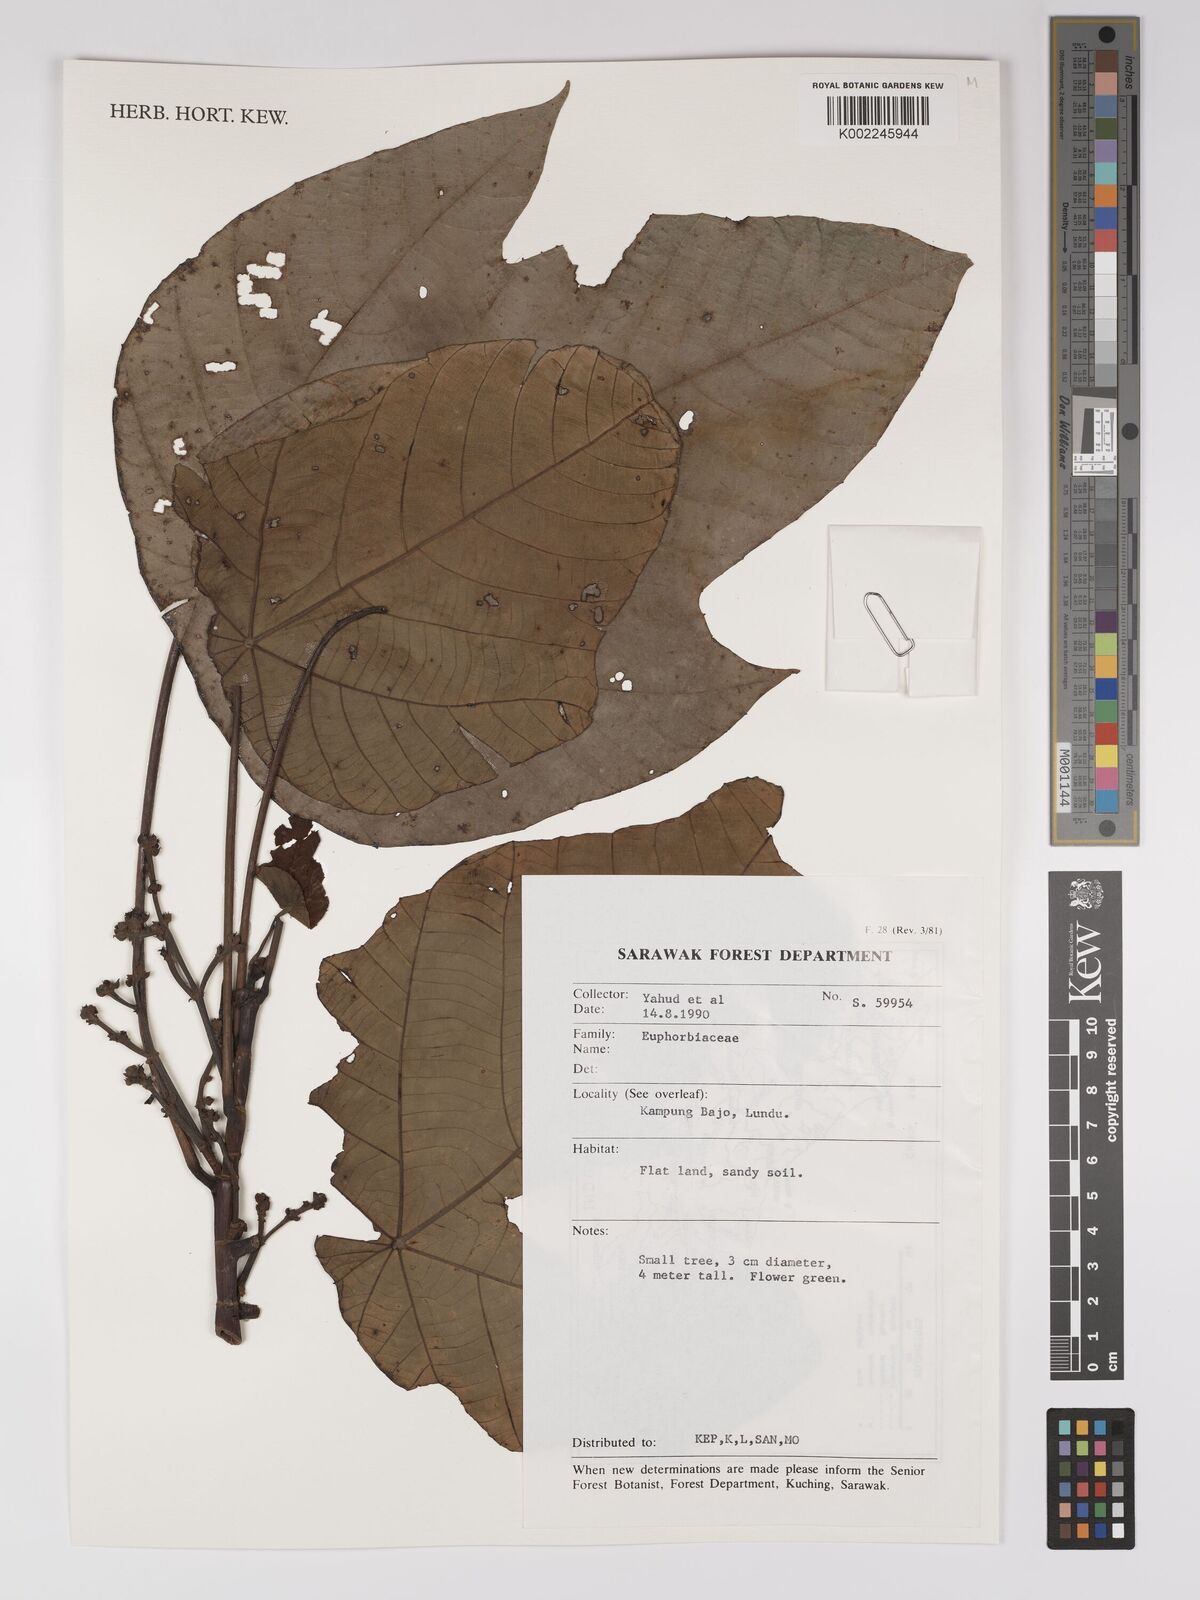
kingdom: Plantae
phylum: Tracheophyta
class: Magnoliopsida
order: Malpighiales
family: Euphorbiaceae
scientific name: Euphorbiaceae
